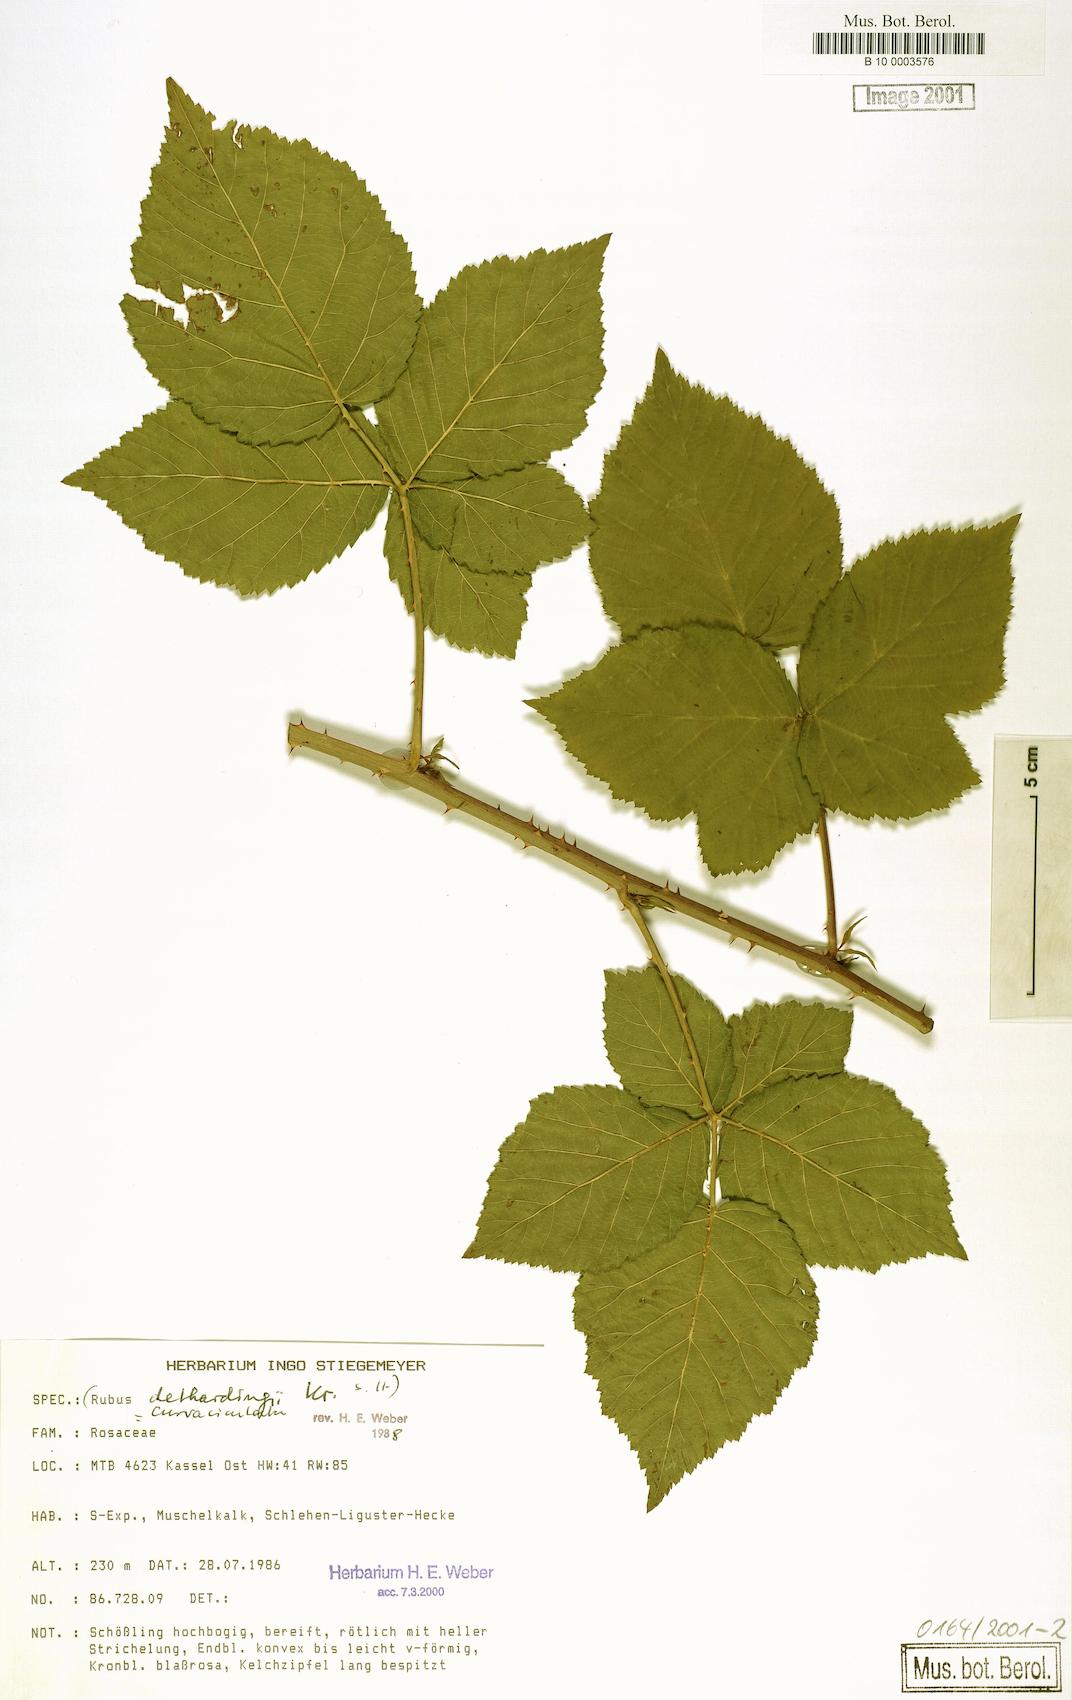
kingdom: Plantae
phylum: Tracheophyta
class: Magnoliopsida
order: Rosales
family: Rosaceae
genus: Rubus
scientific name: Rubus curvaciculatus
